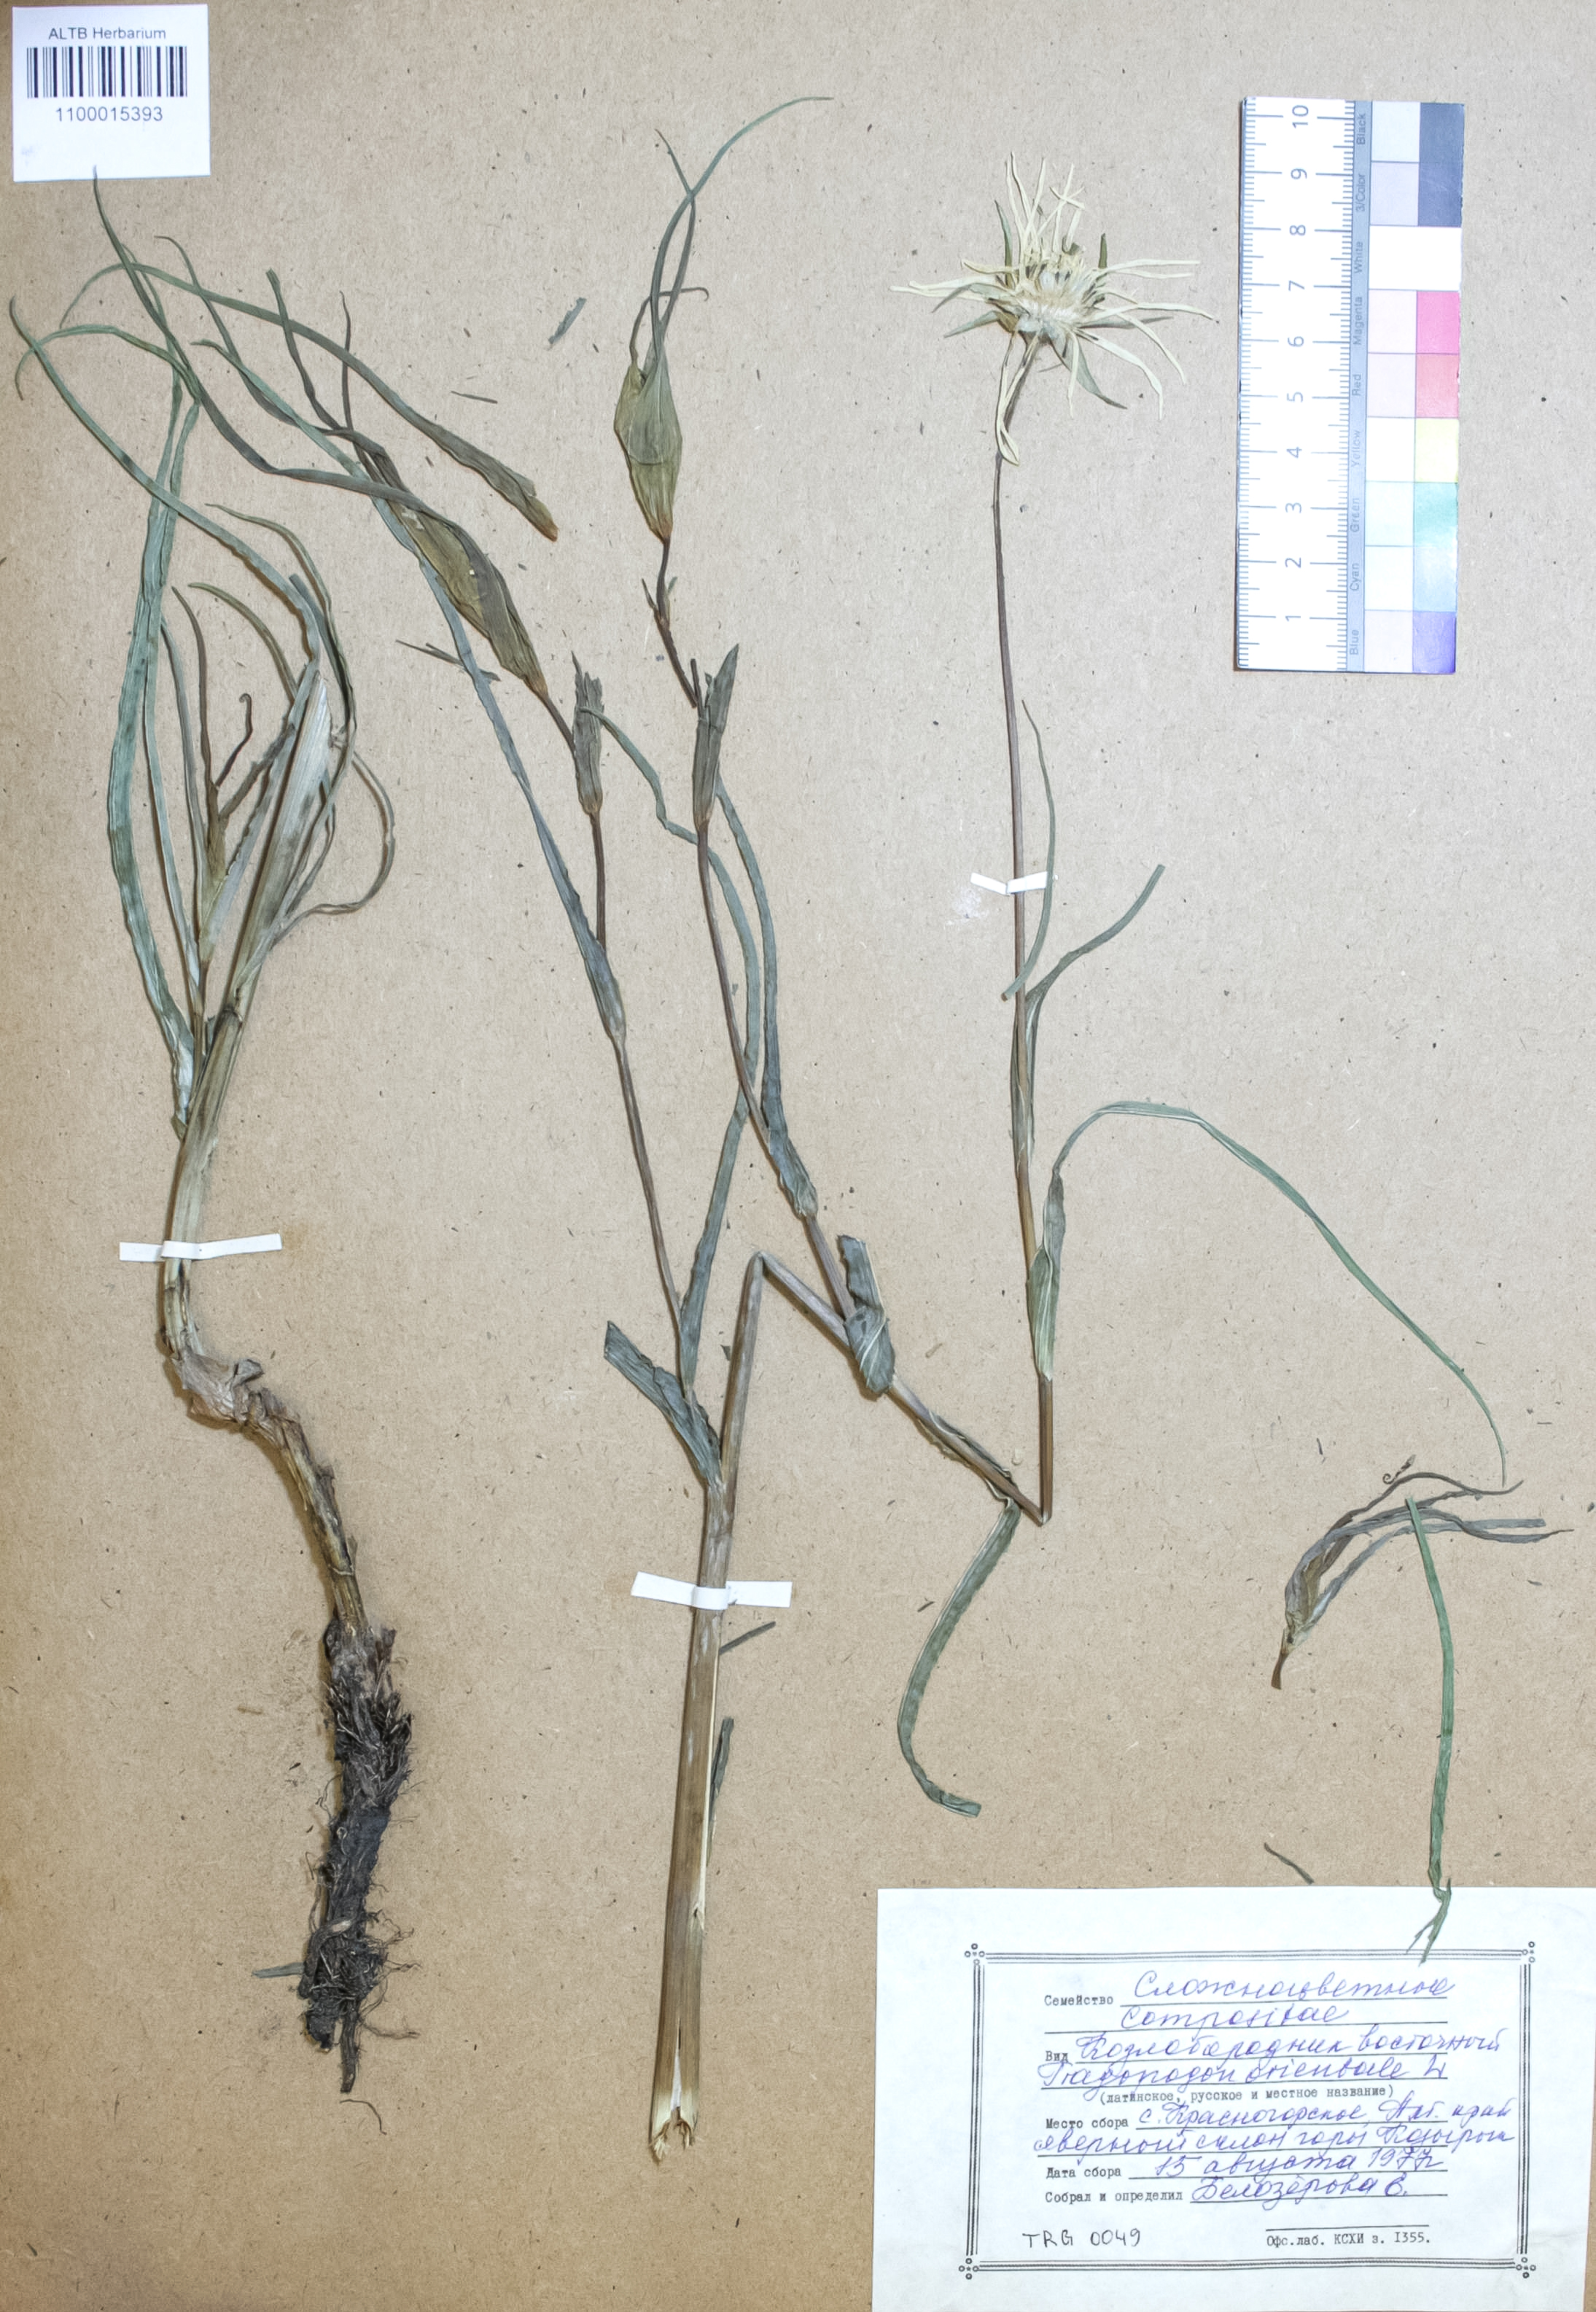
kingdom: Plantae
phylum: Tracheophyta
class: Magnoliopsida
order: Asterales
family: Asteraceae
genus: Tragopogon
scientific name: Tragopogon orientalis
